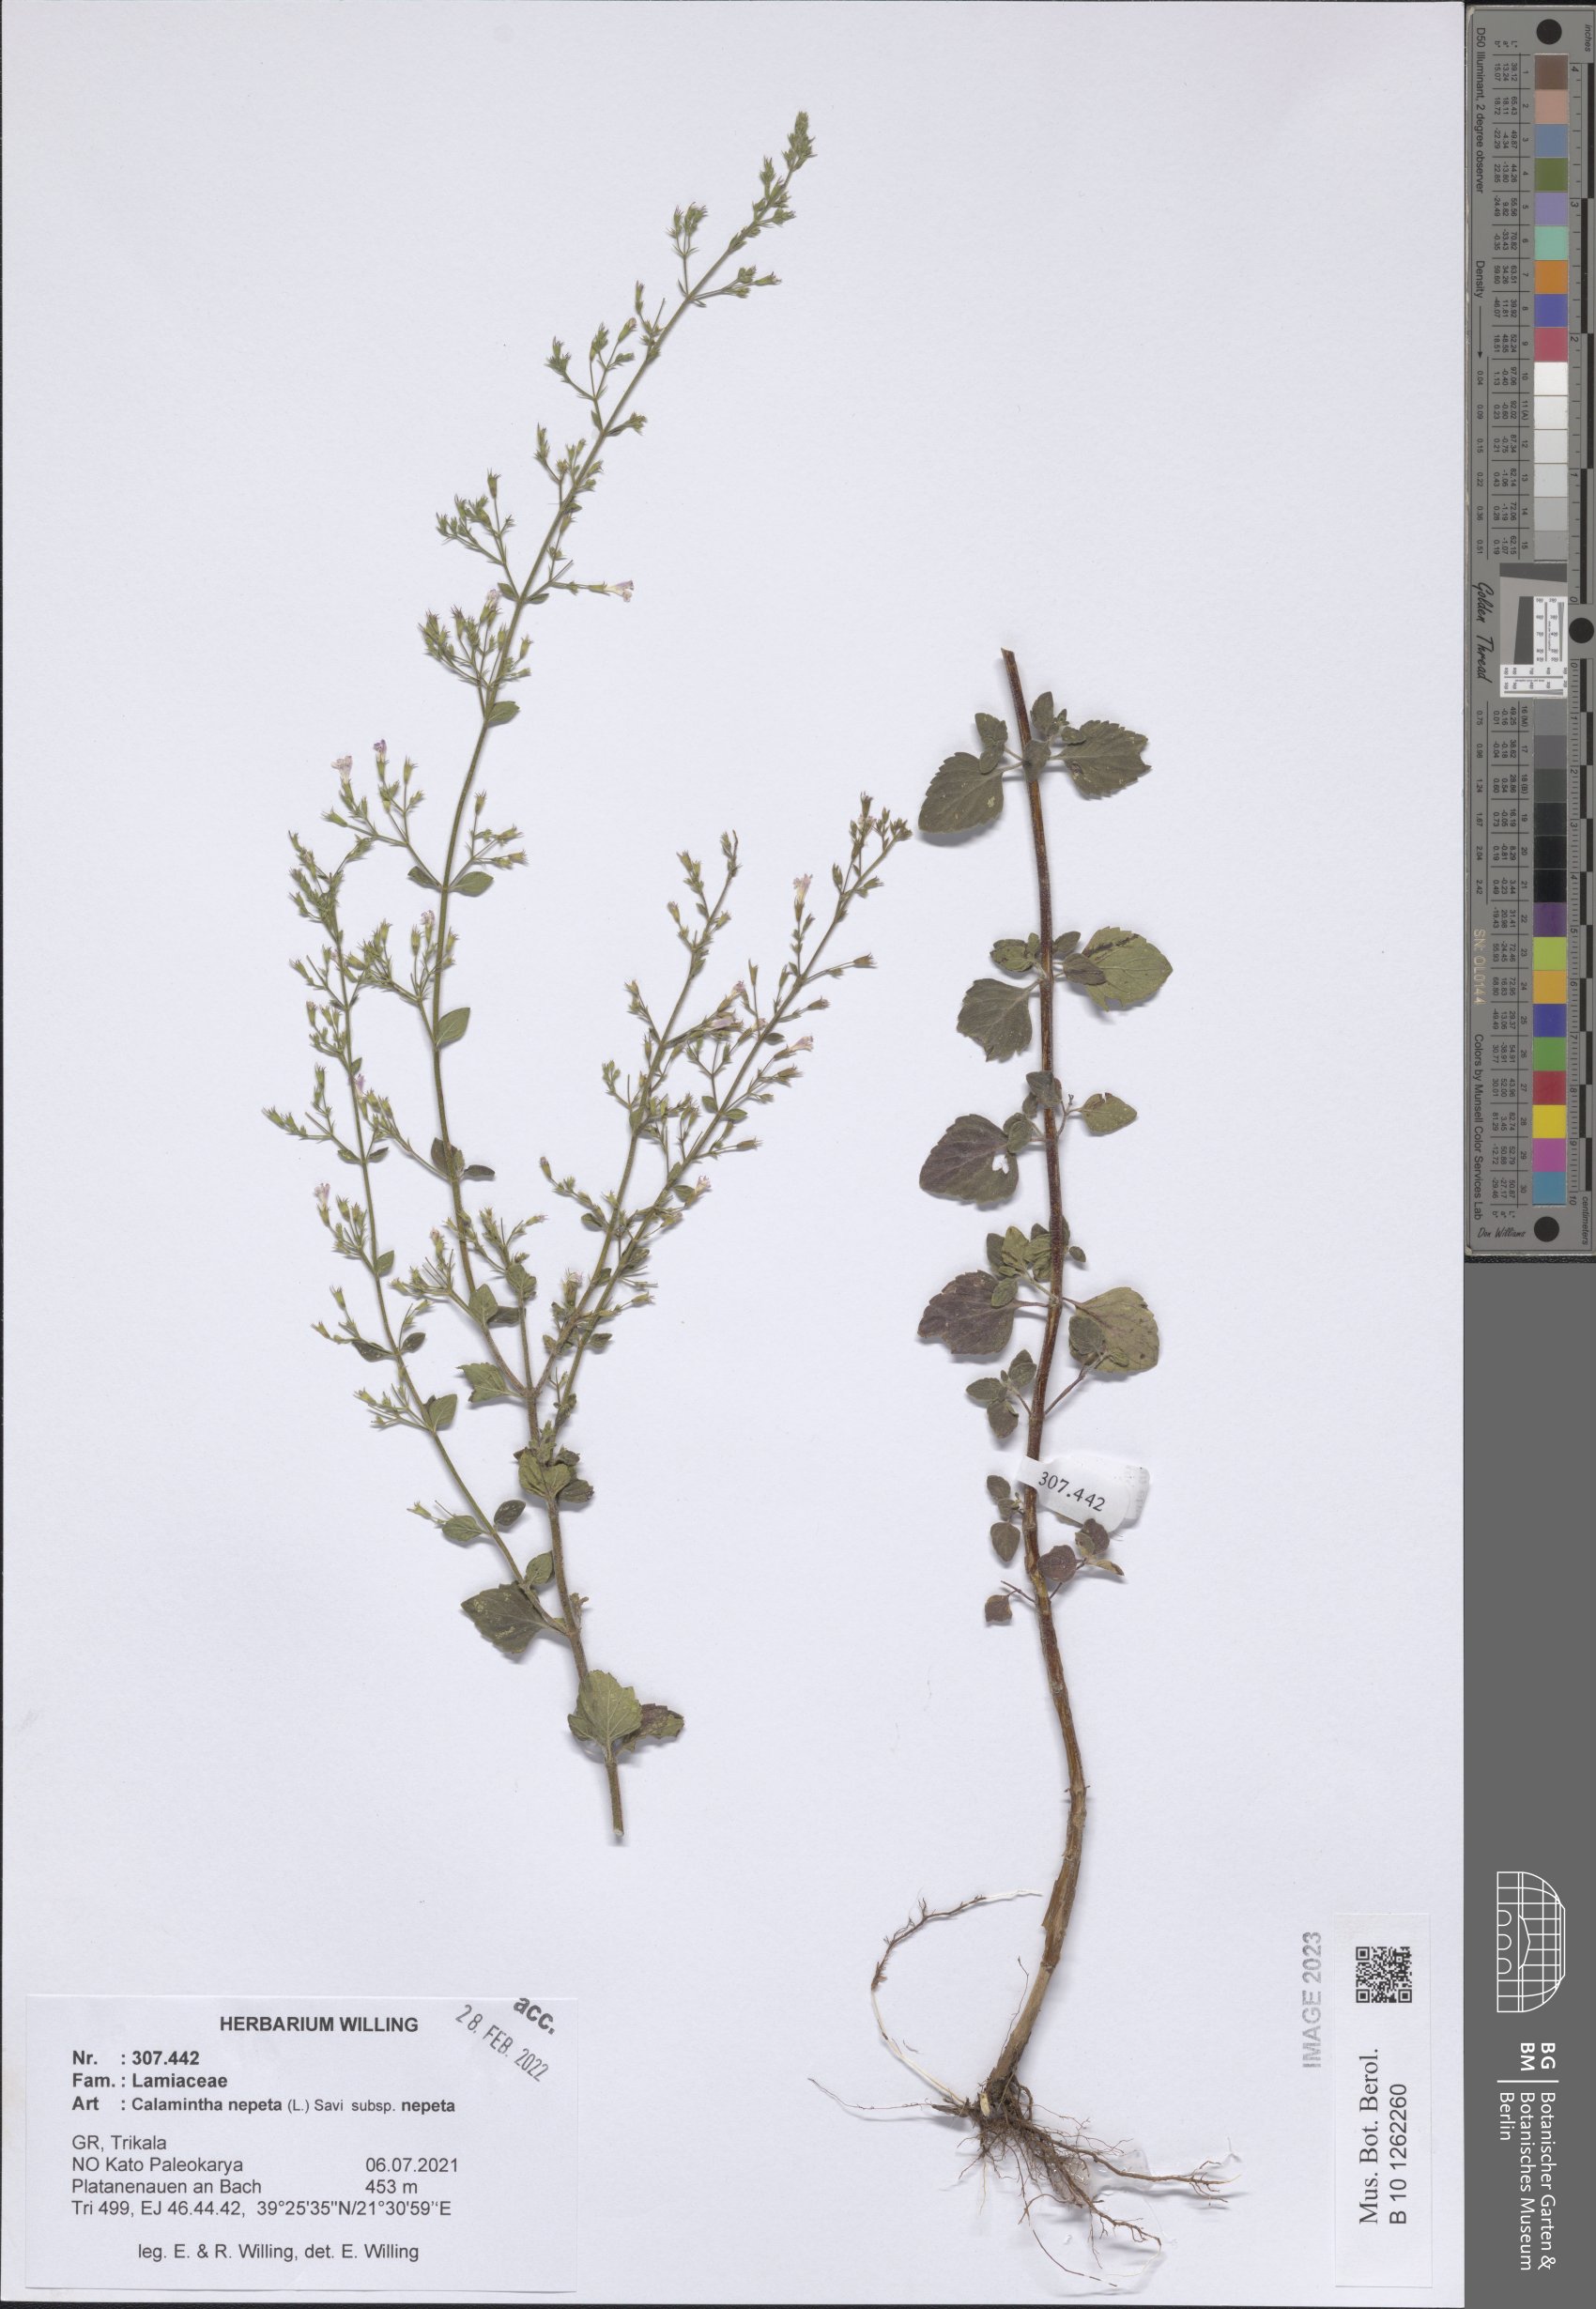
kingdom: Plantae
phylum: Tracheophyta
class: Magnoliopsida
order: Lamiales
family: Lamiaceae
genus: Clinopodium
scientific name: Clinopodium nepeta
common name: Lesser calamint
